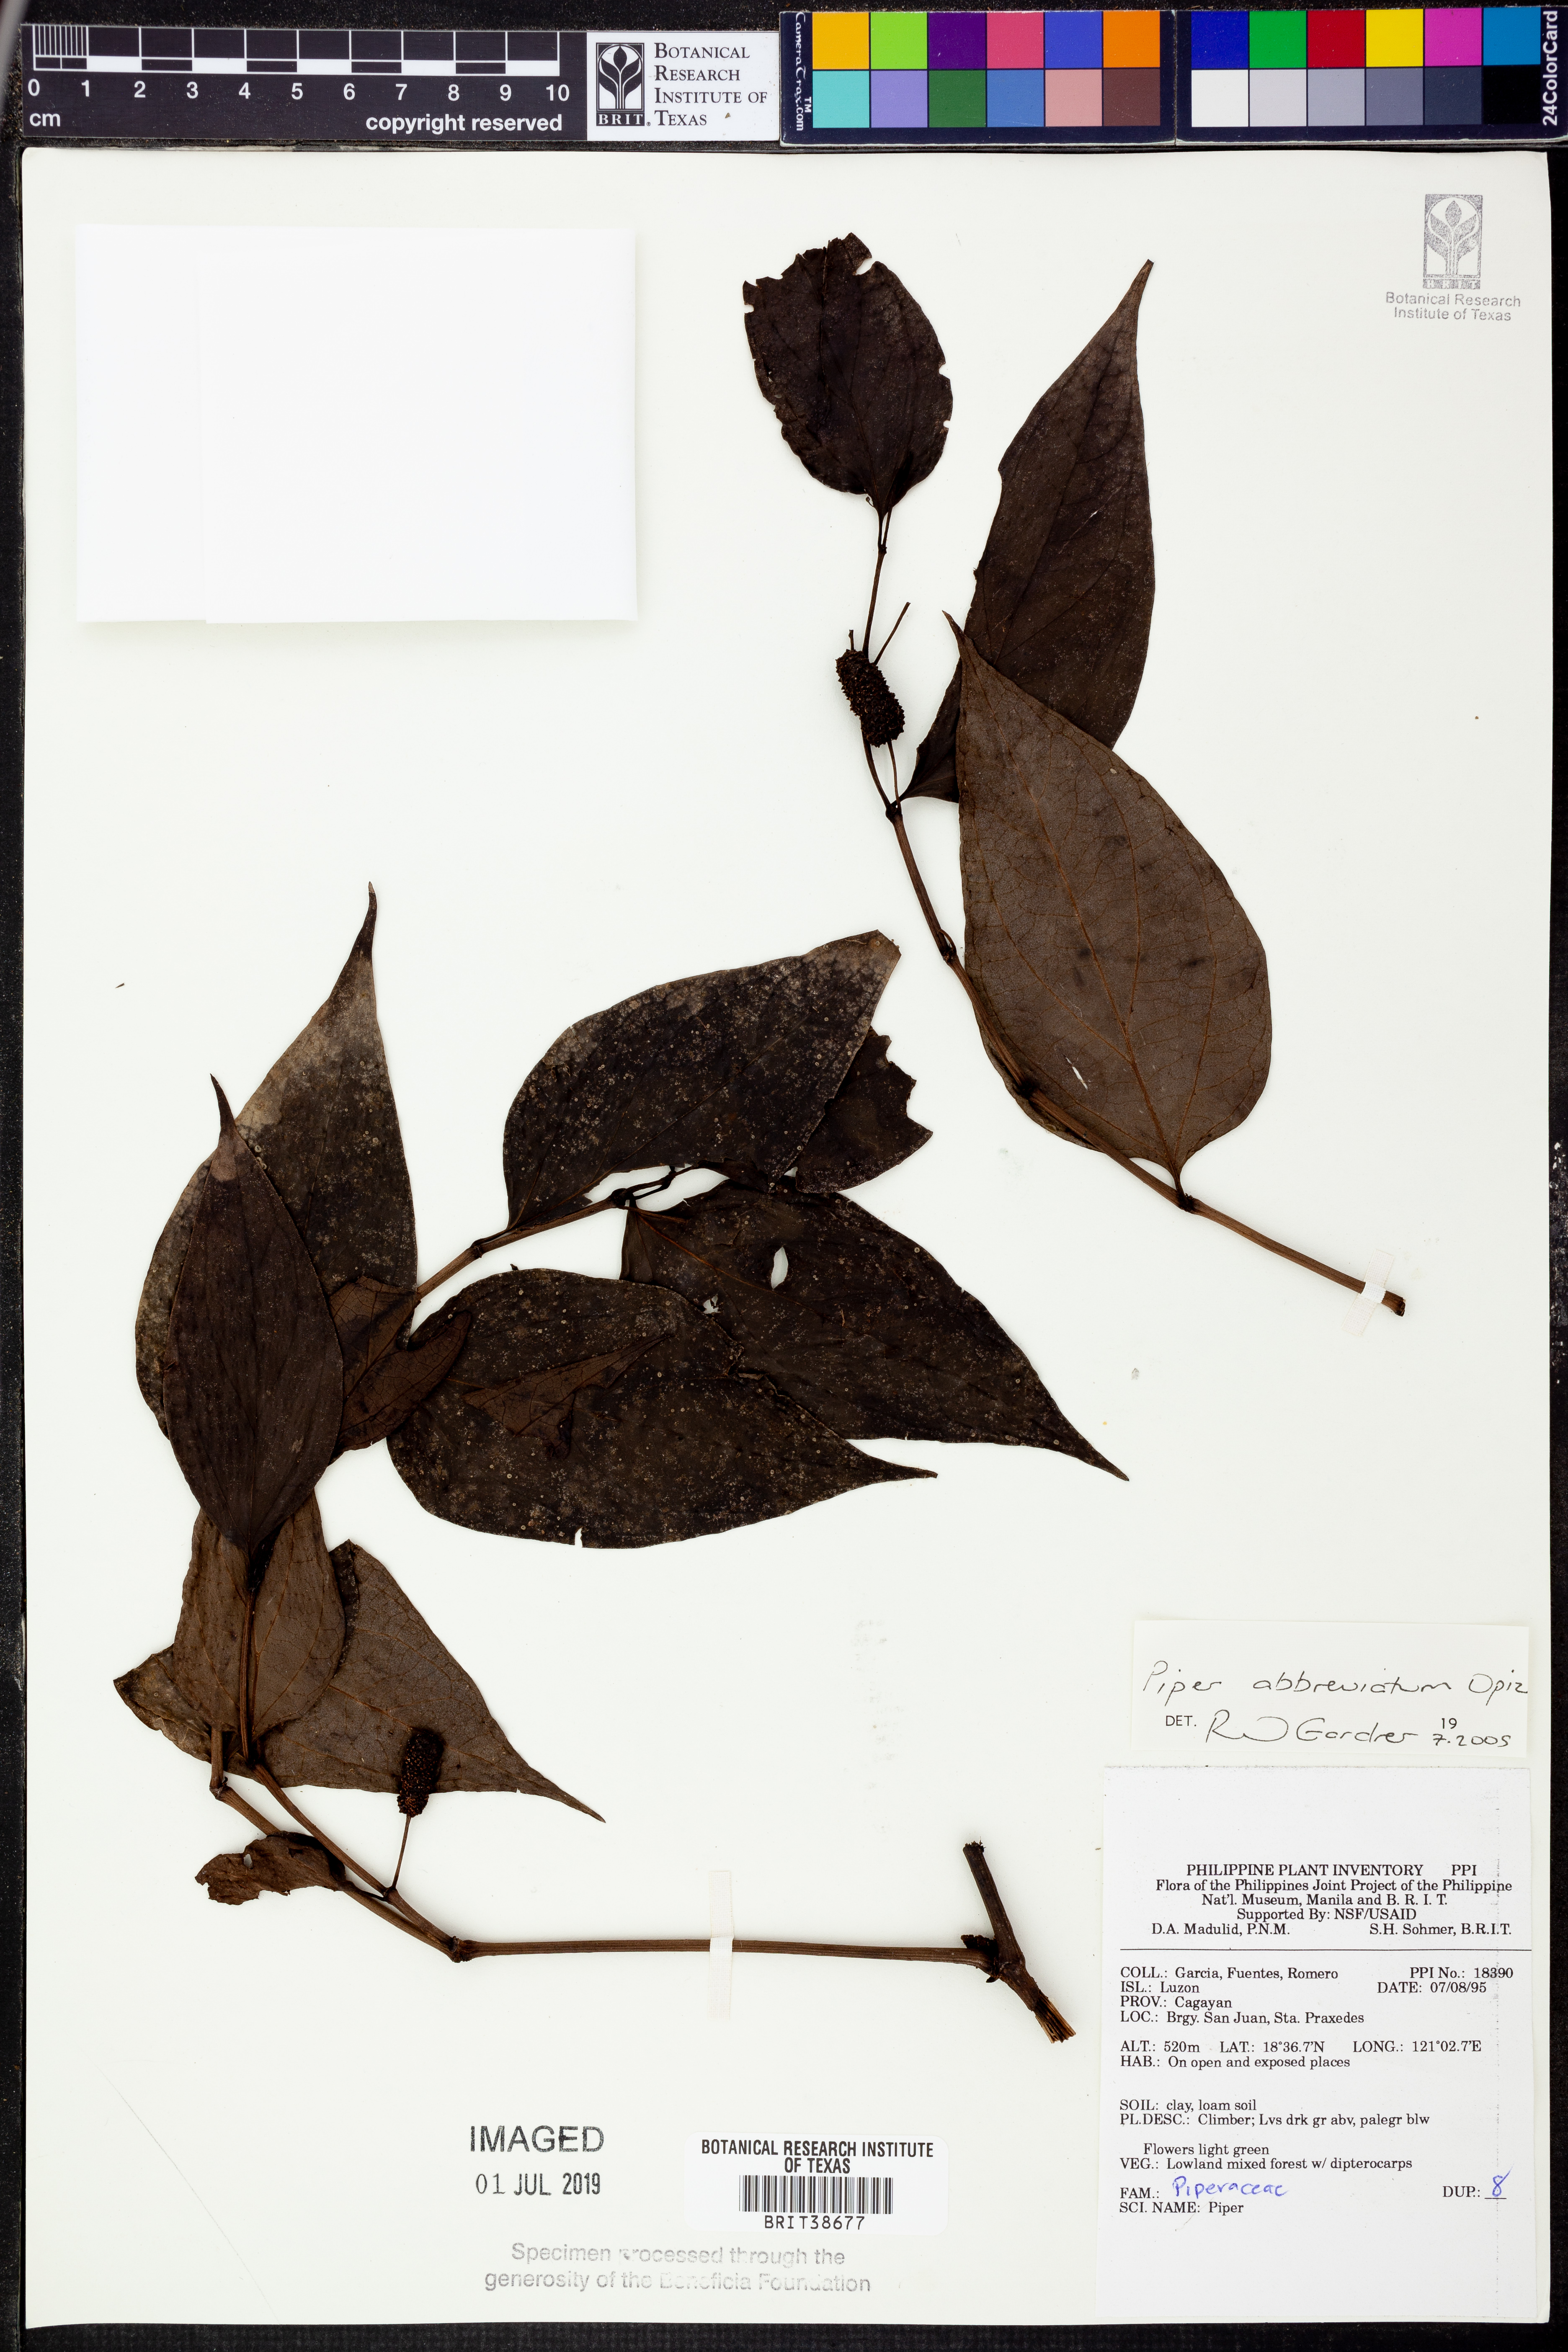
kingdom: Plantae
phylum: Tracheophyta
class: Magnoliopsida
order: Piperales
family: Piperaceae
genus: Piper
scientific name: Piper abbreviatum
